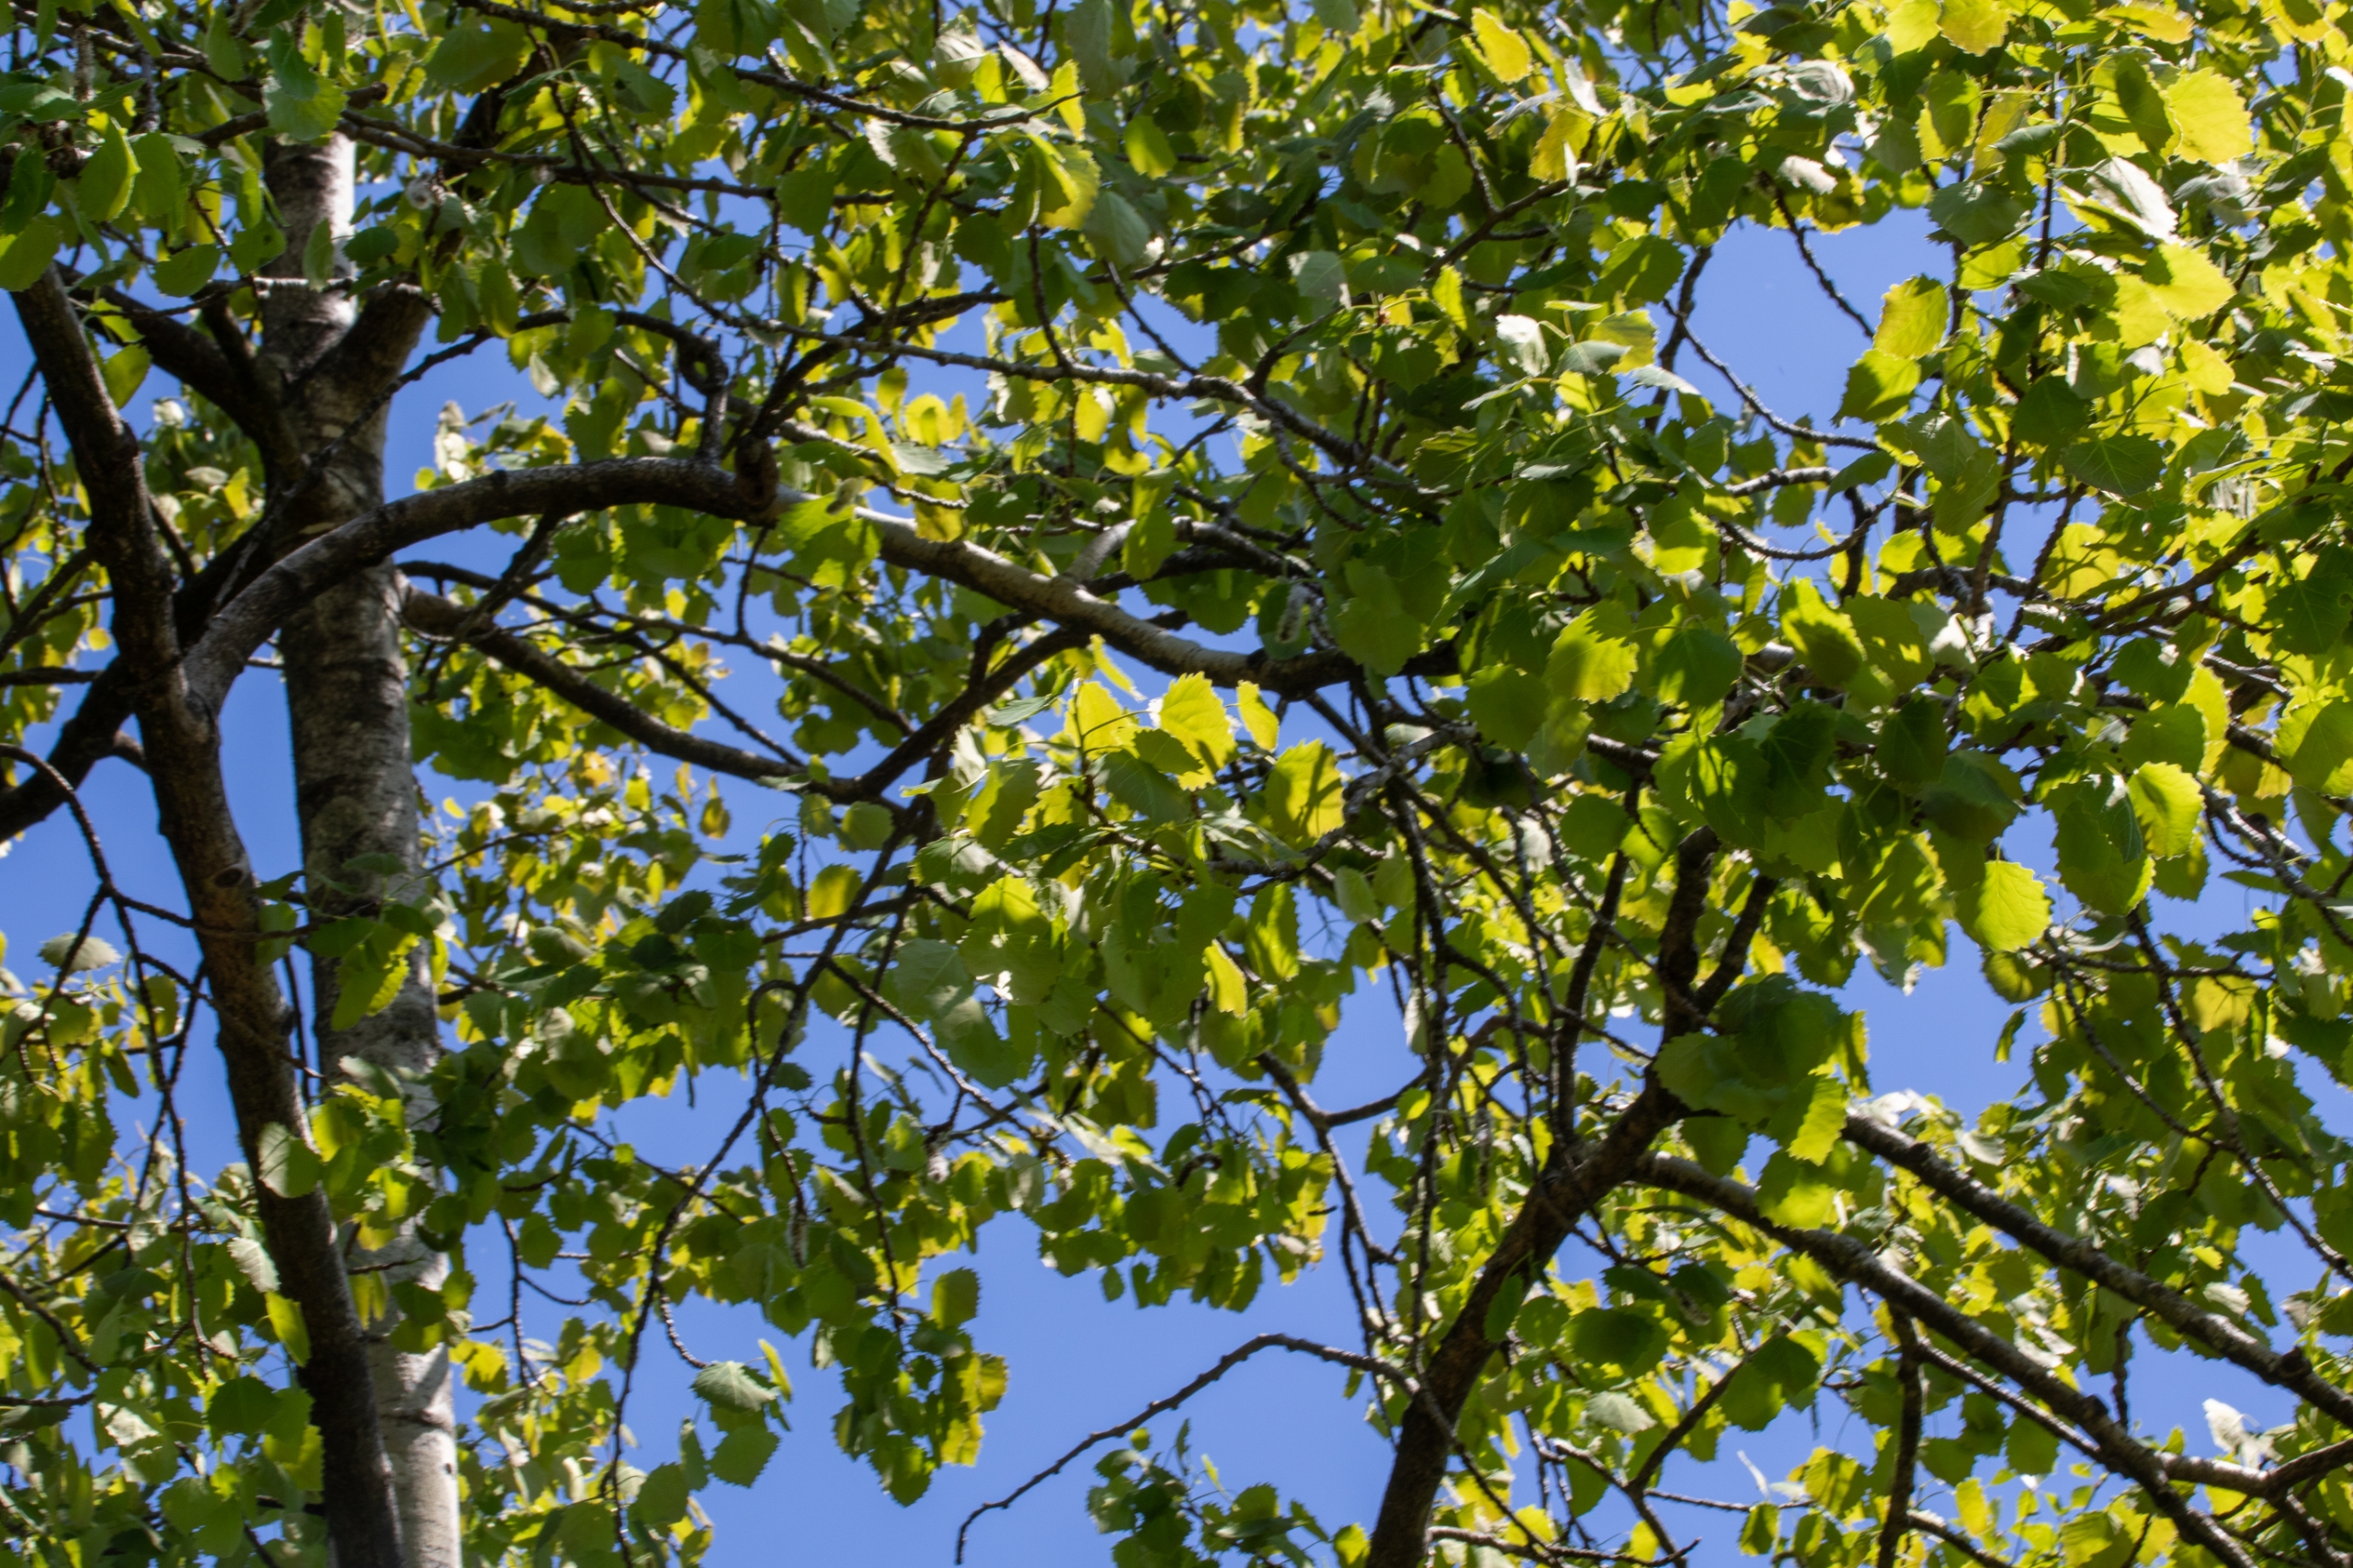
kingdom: Plantae
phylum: Tracheophyta
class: Magnoliopsida
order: Malpighiales
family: Salicaceae
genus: Populus
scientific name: Populus tremula
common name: Bævreasp
